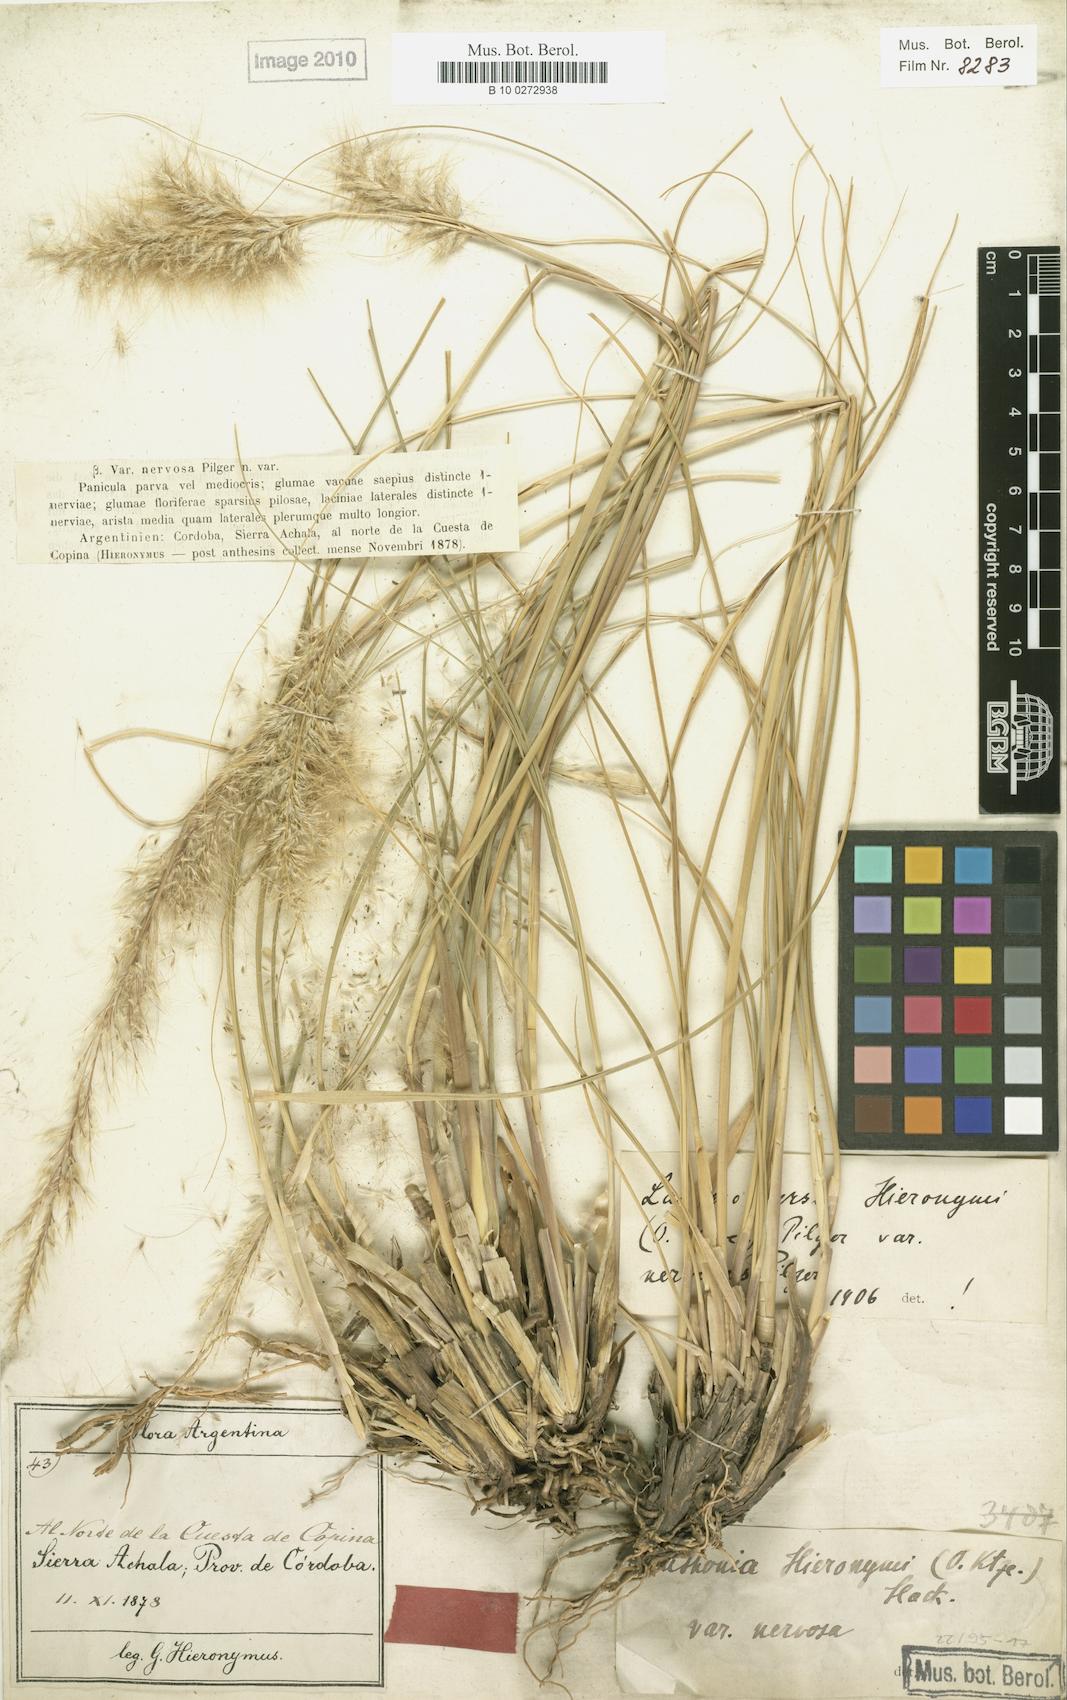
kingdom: Plantae
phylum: Tracheophyta
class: Liliopsida
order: Poales
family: Poaceae
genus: Cortaderia
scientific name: Cortaderia hieronymi
